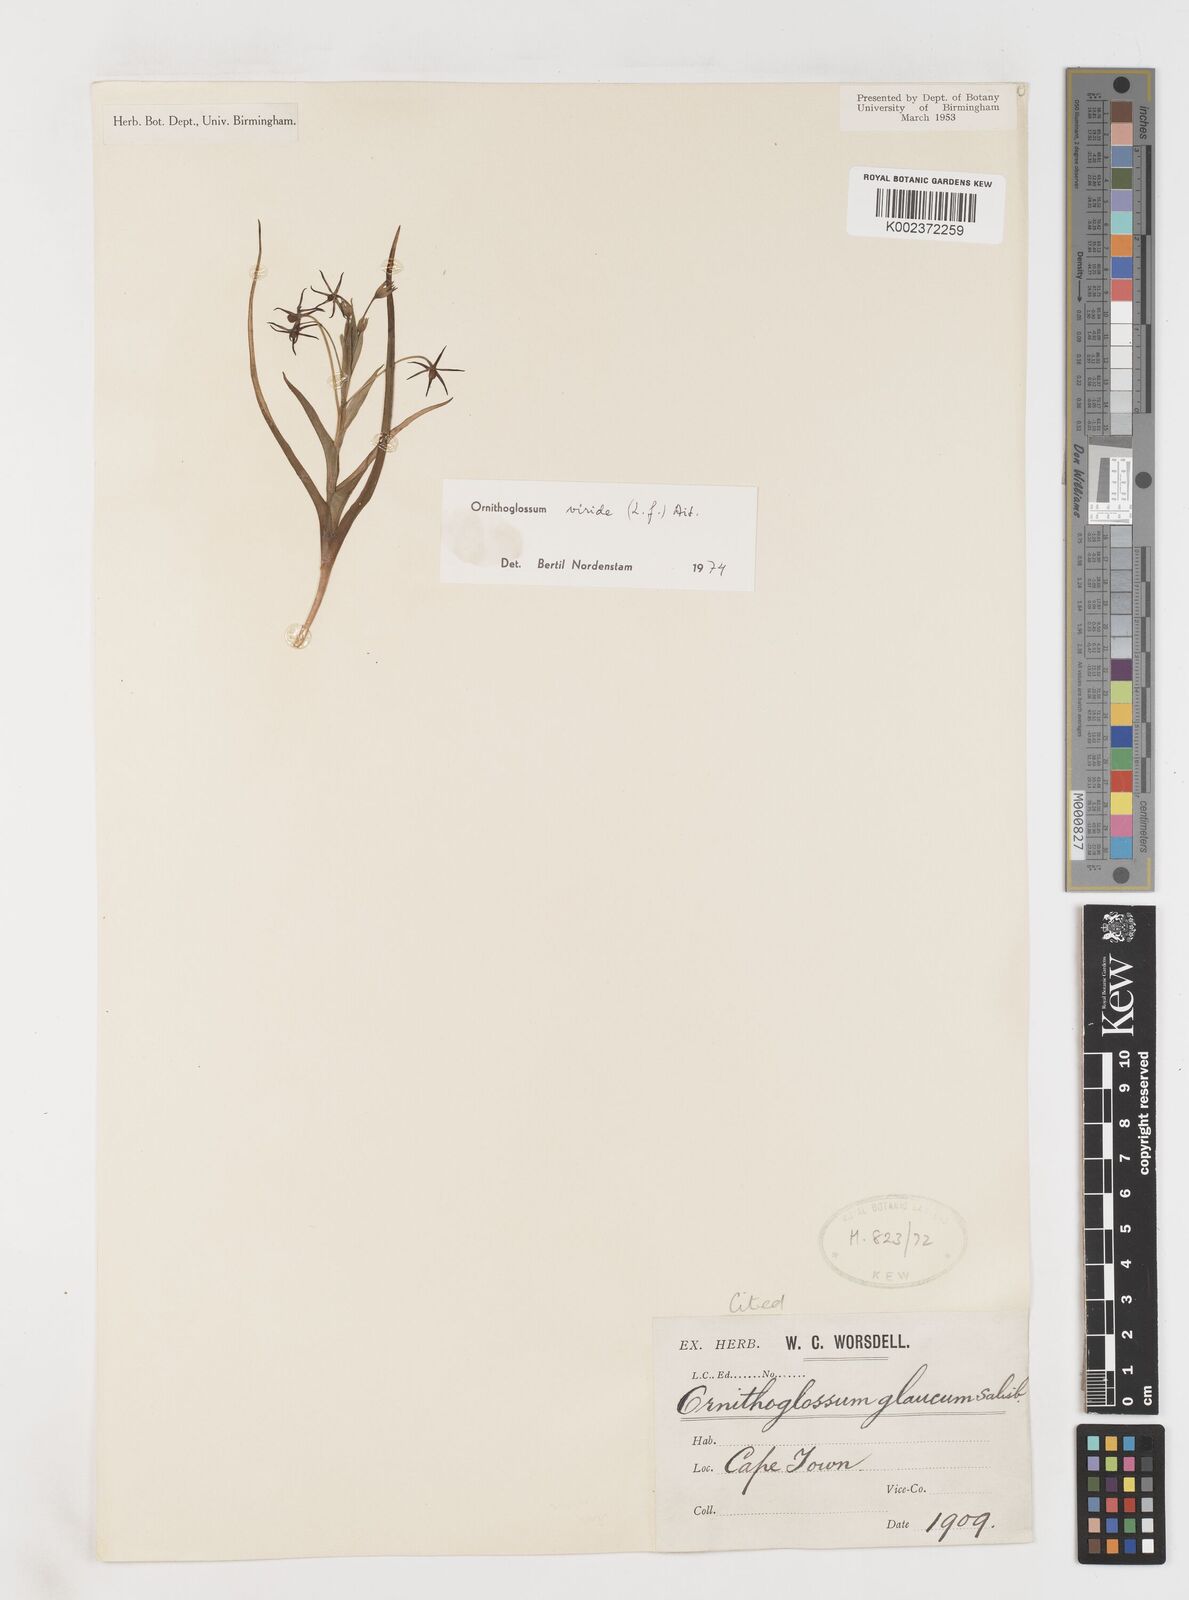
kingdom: Plantae
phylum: Tracheophyta
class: Liliopsida
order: Liliales
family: Colchicaceae
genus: Ornithoglossum
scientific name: Ornithoglossum viride
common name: Cape poison-onion
